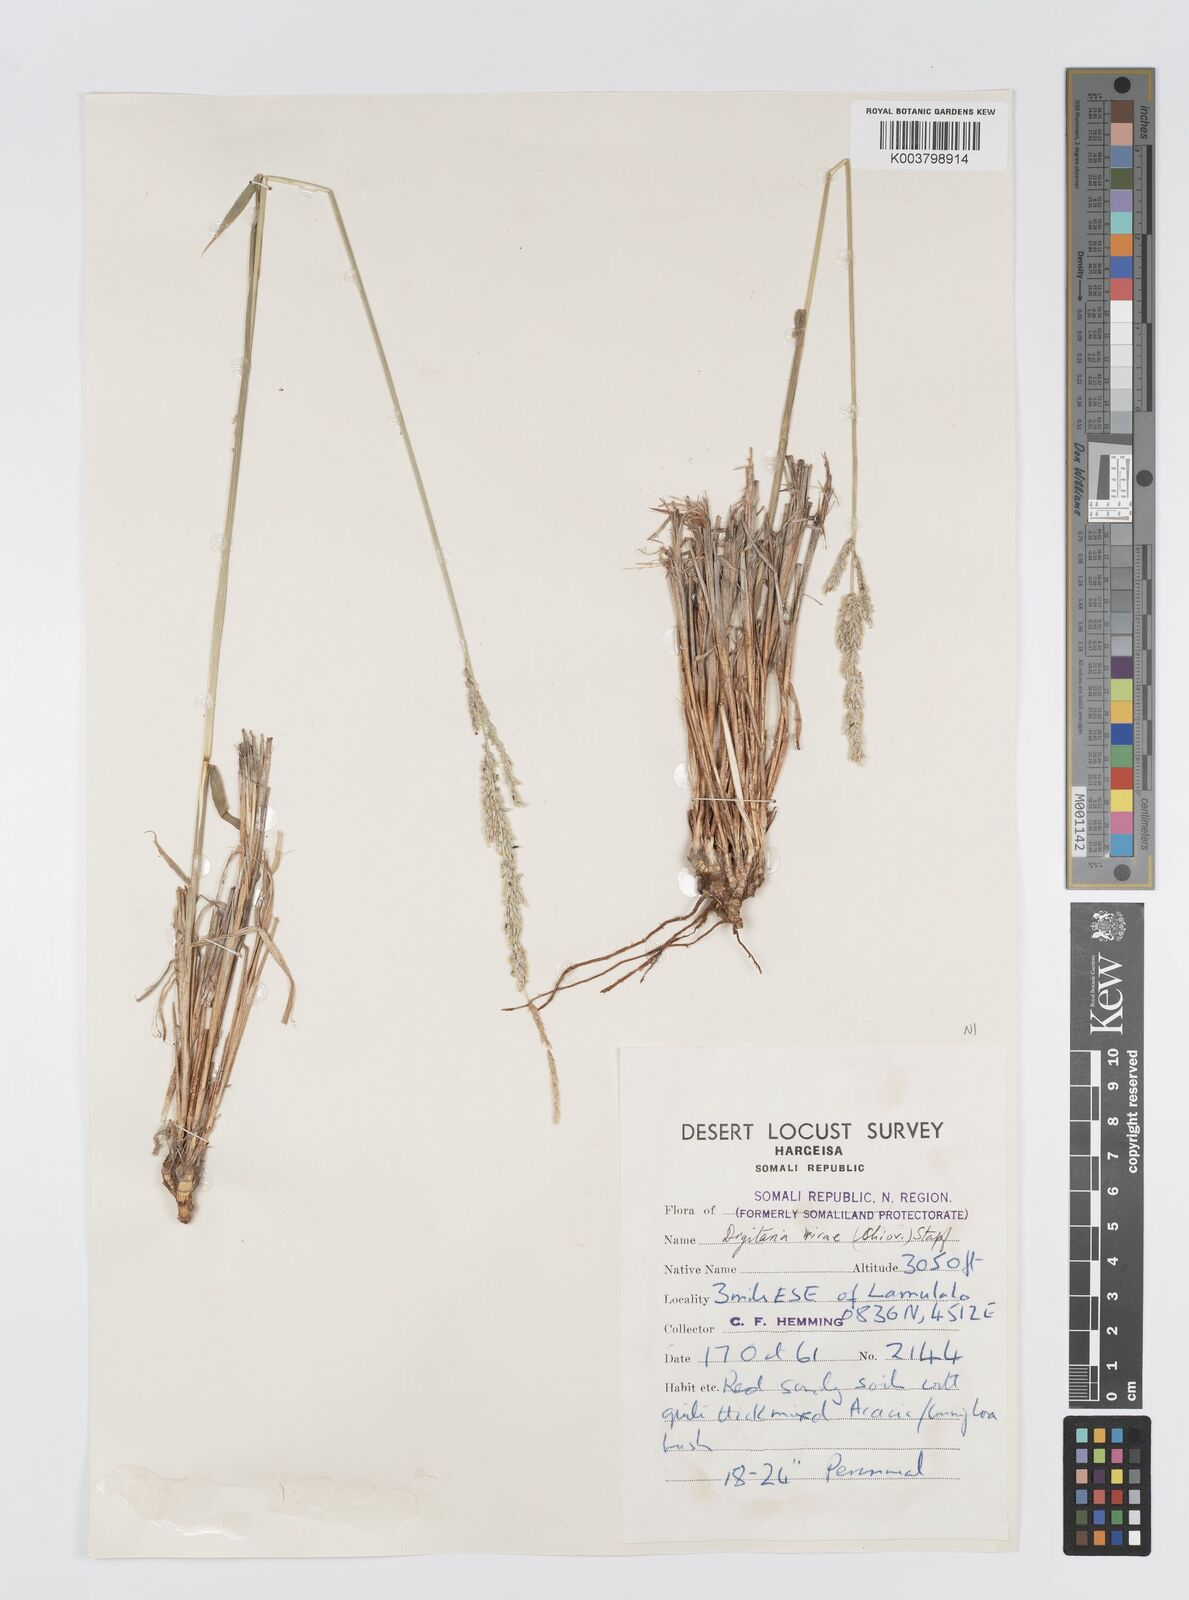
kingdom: Plantae
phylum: Tracheophyta
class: Liliopsida
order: Poales
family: Poaceae
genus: Digitaria
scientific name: Digitaria rivae
